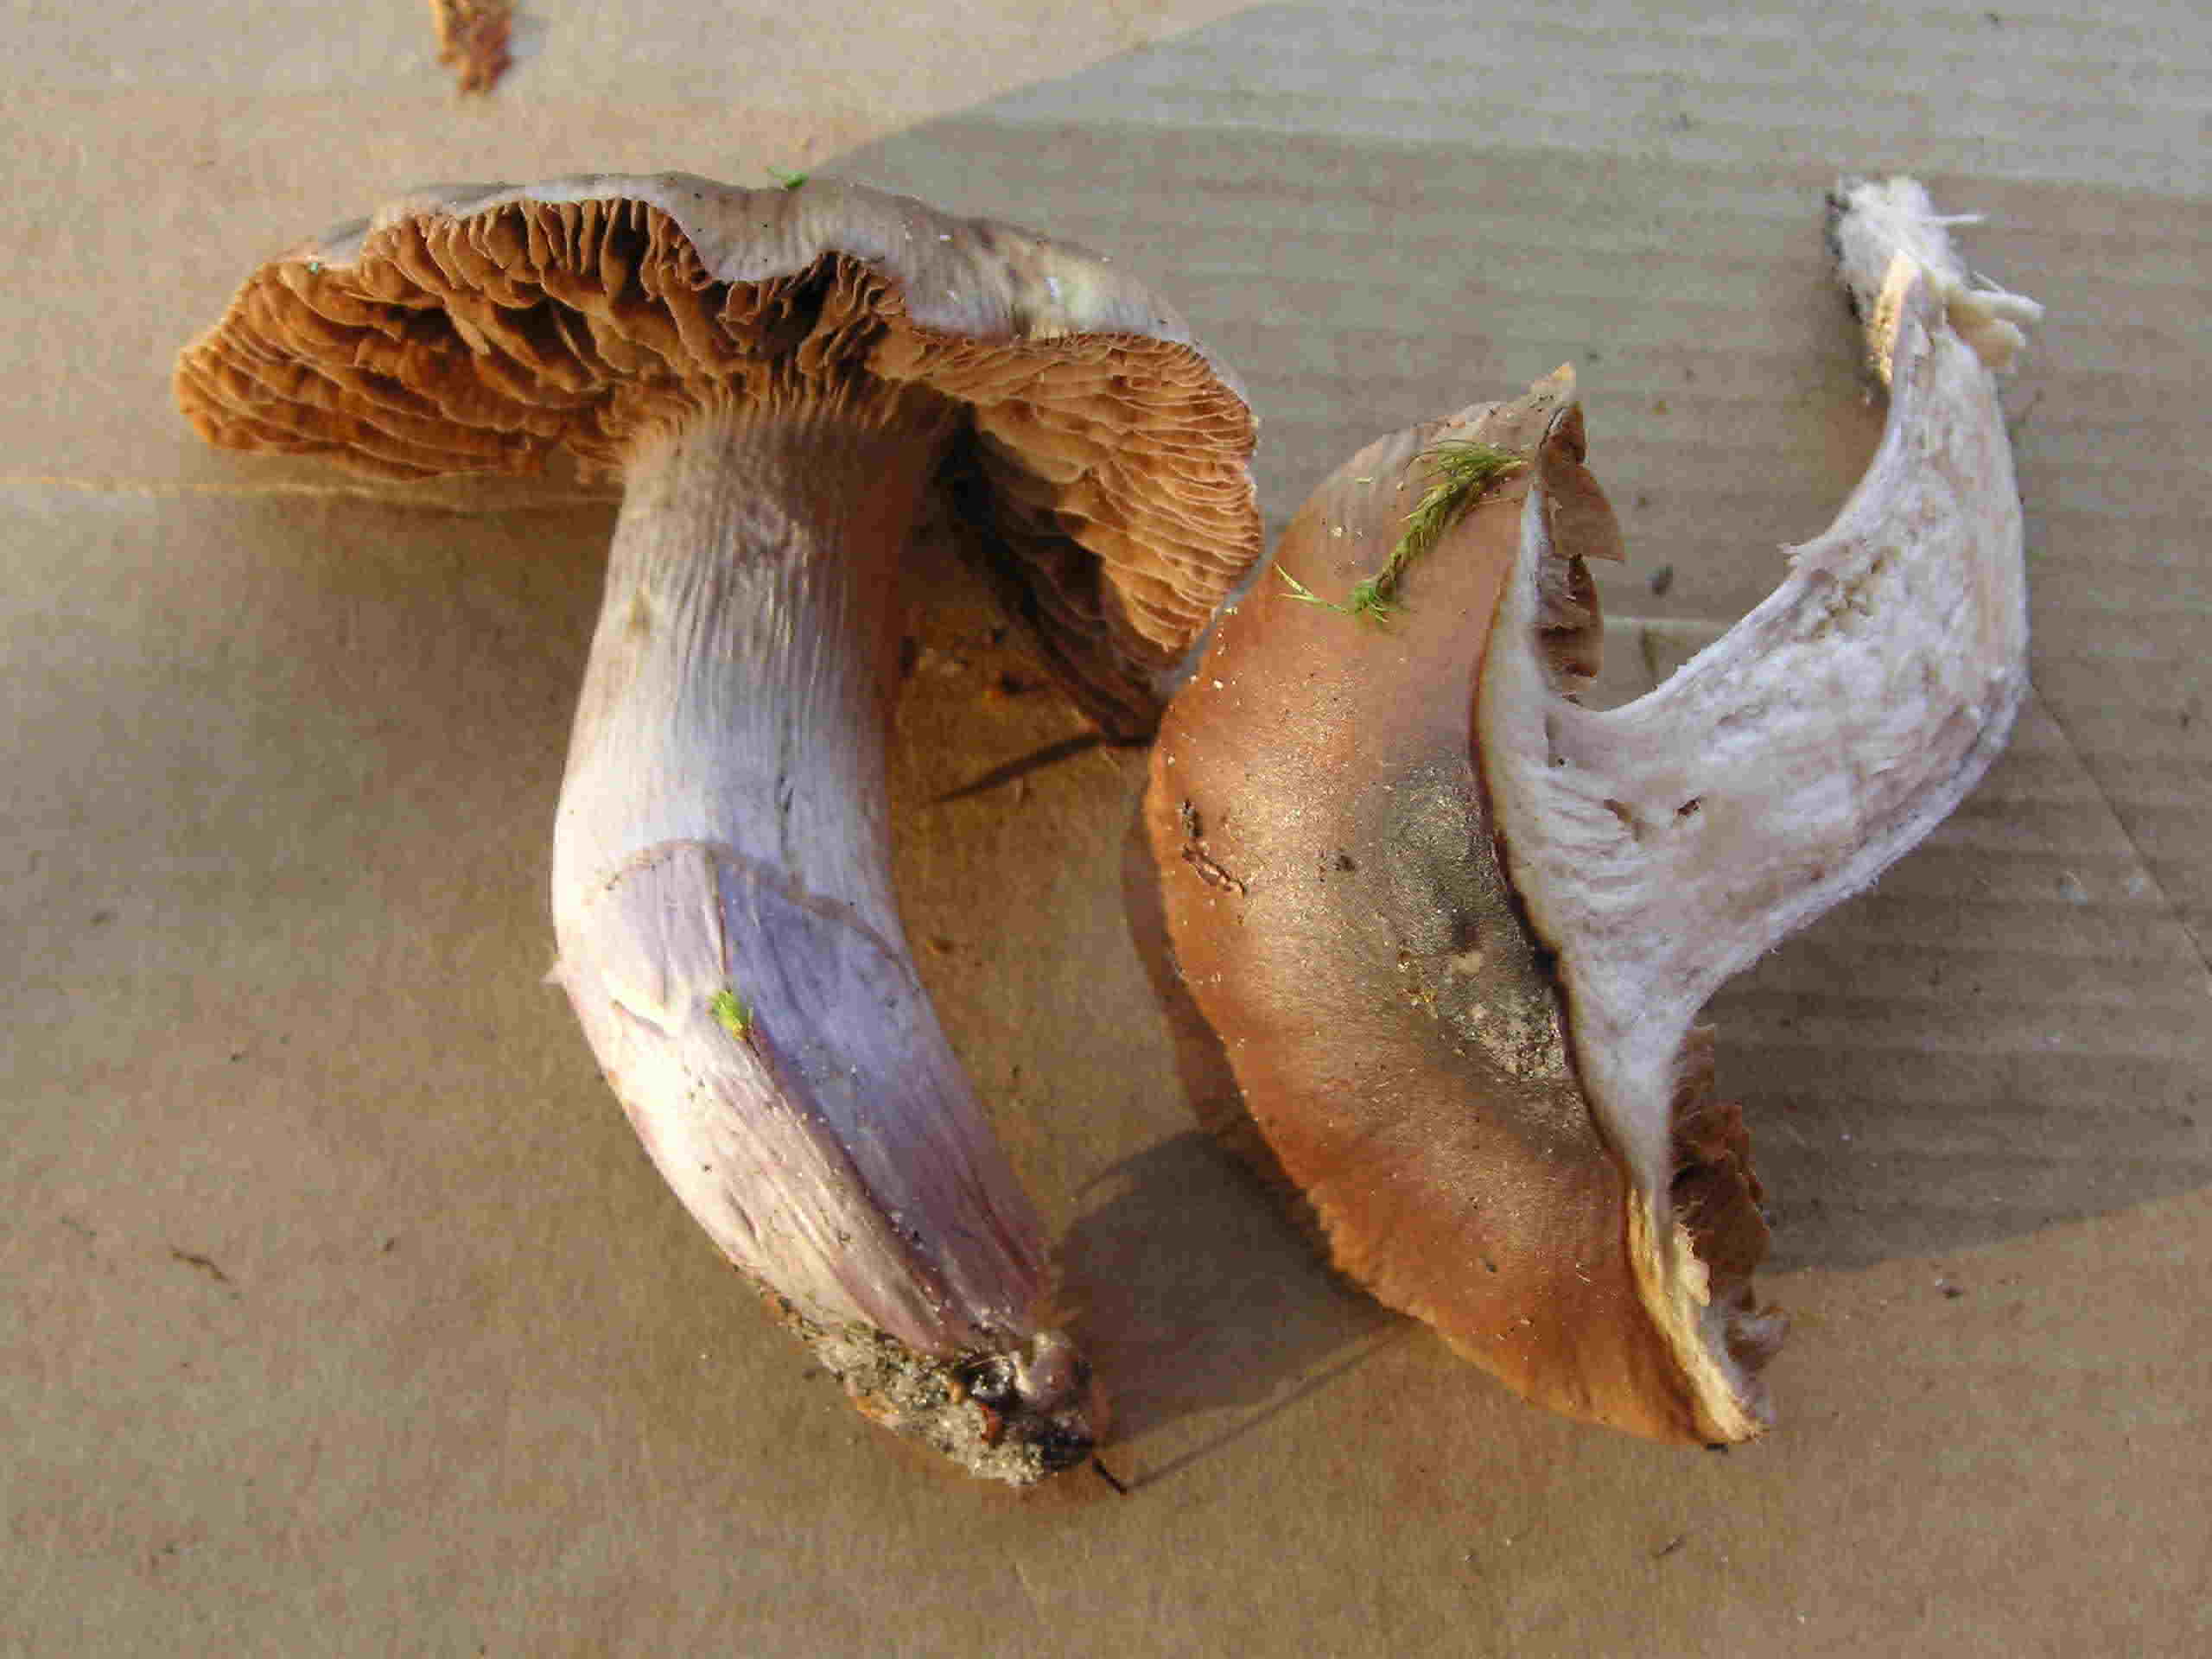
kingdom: Fungi
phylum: Basidiomycota
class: Agaricomycetes
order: Agaricales
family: Cortinariaceae
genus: Cortinarius
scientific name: Cortinarius elatior
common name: høj slørhat
